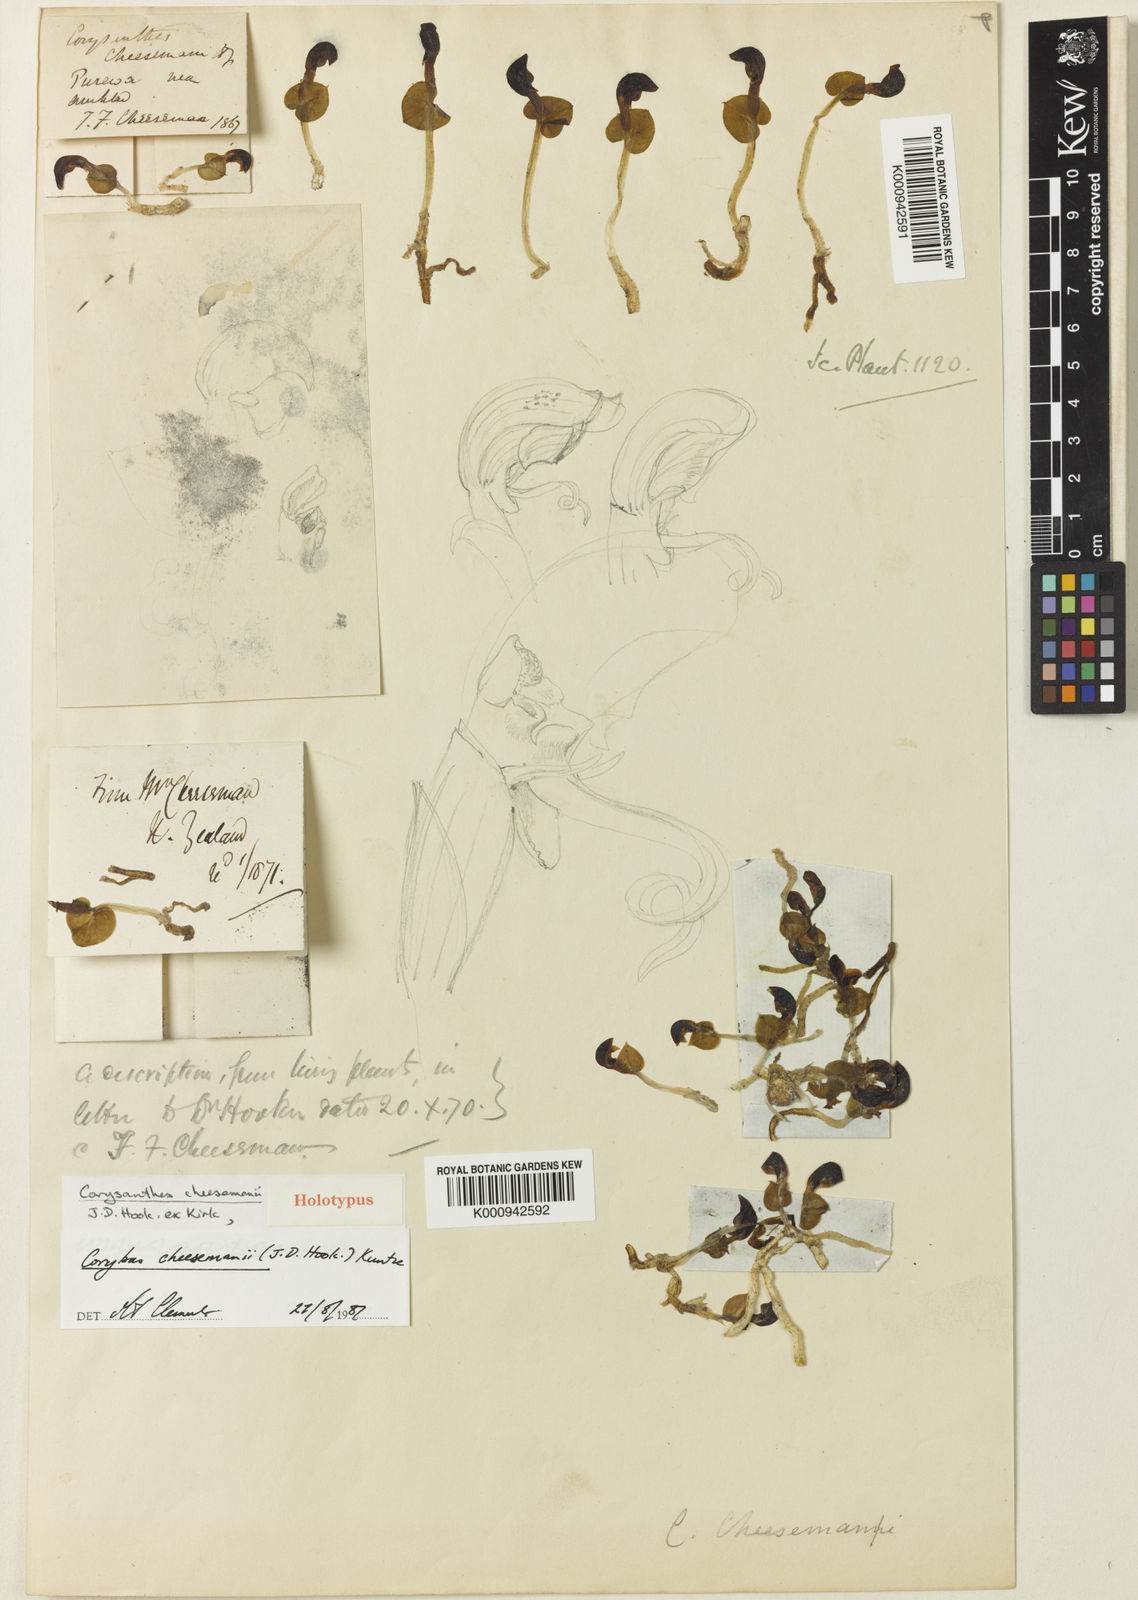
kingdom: Plantae
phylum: Tracheophyta
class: Liliopsida
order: Asparagales
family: Orchidaceae
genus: Corybas
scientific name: Corybas cheesemanii
